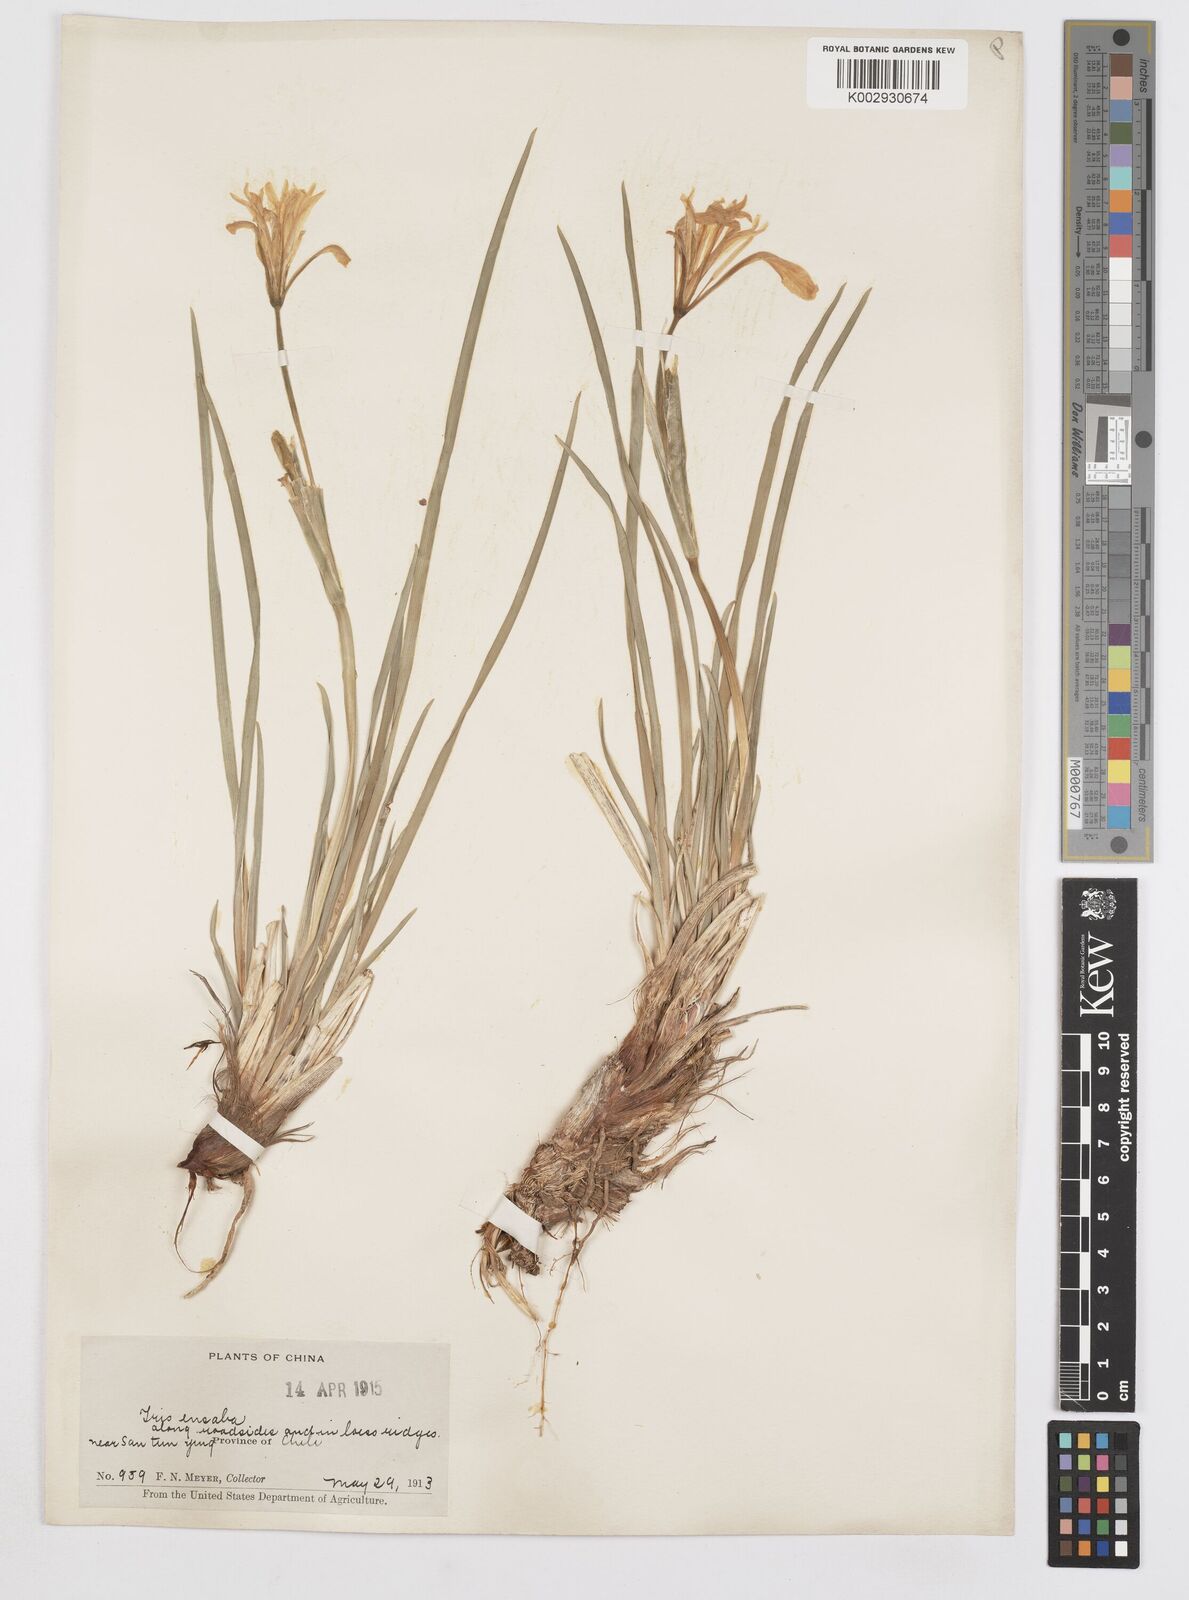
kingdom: Plantae
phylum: Tracheophyta
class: Liliopsida
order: Asparagales
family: Iridaceae
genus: Iris
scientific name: Iris ensata
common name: Beaked iris
